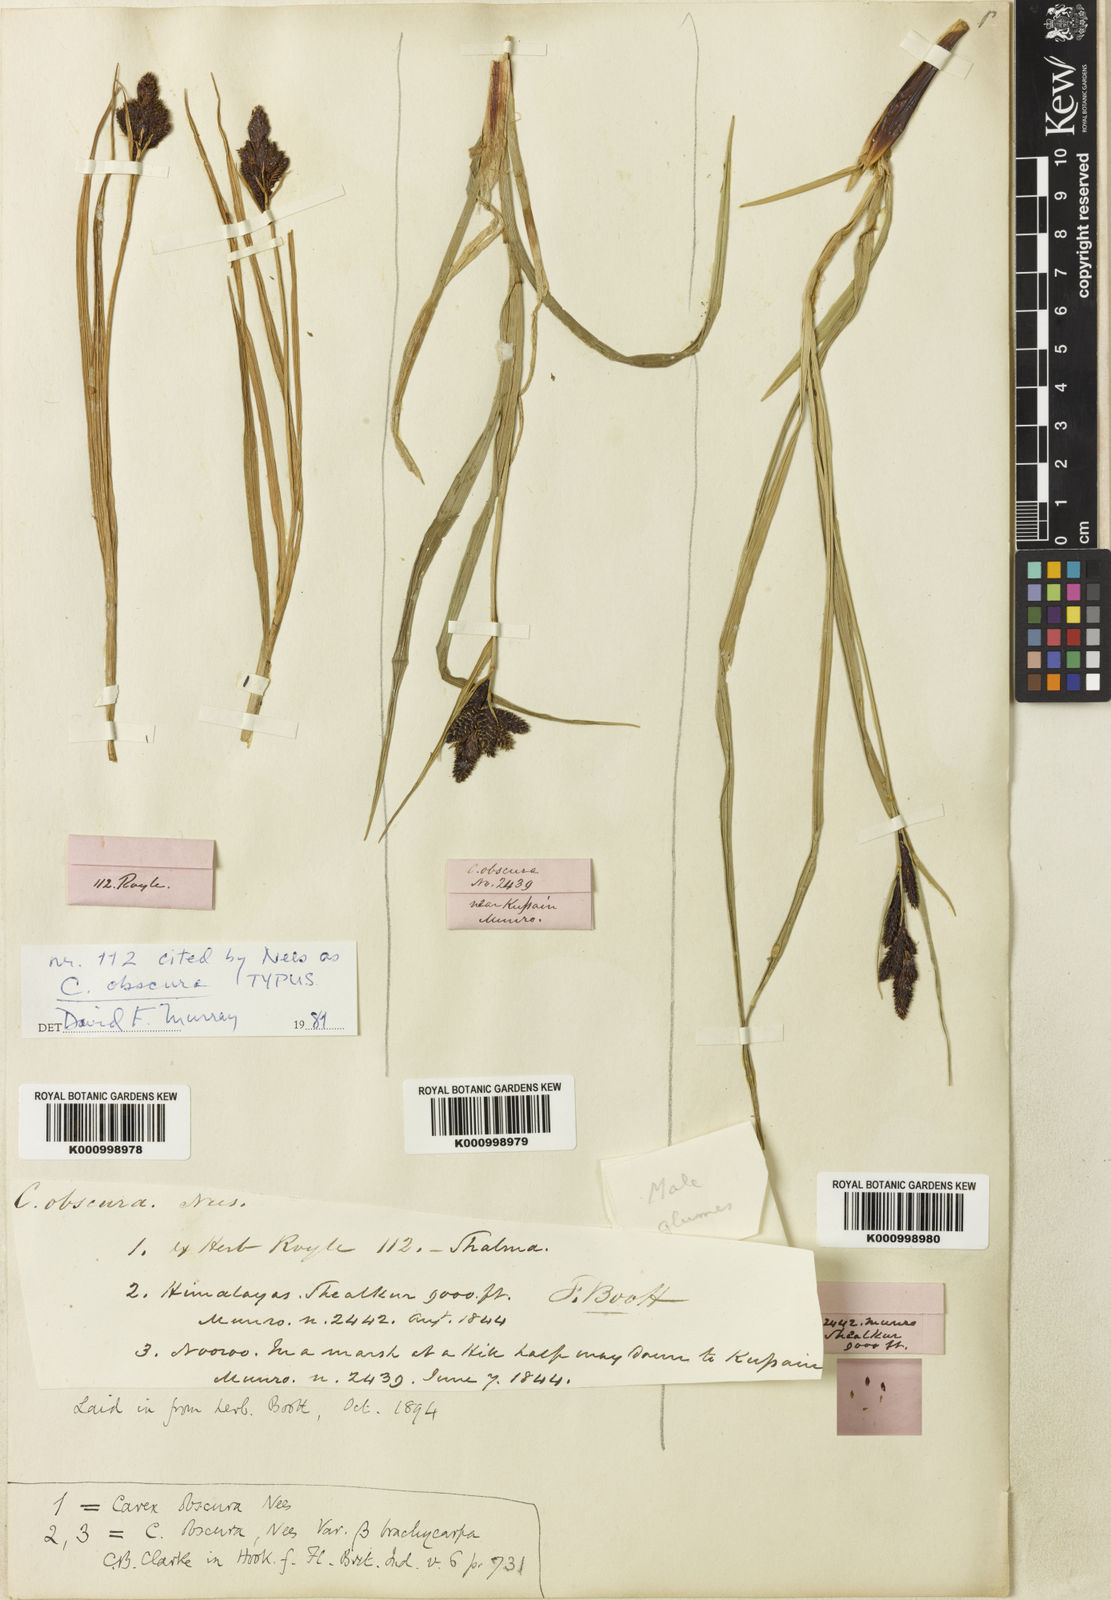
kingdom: Plantae
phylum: Tracheophyta
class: Liliopsida
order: Poales
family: Cyperaceae
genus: Carex
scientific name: Carex obscura
